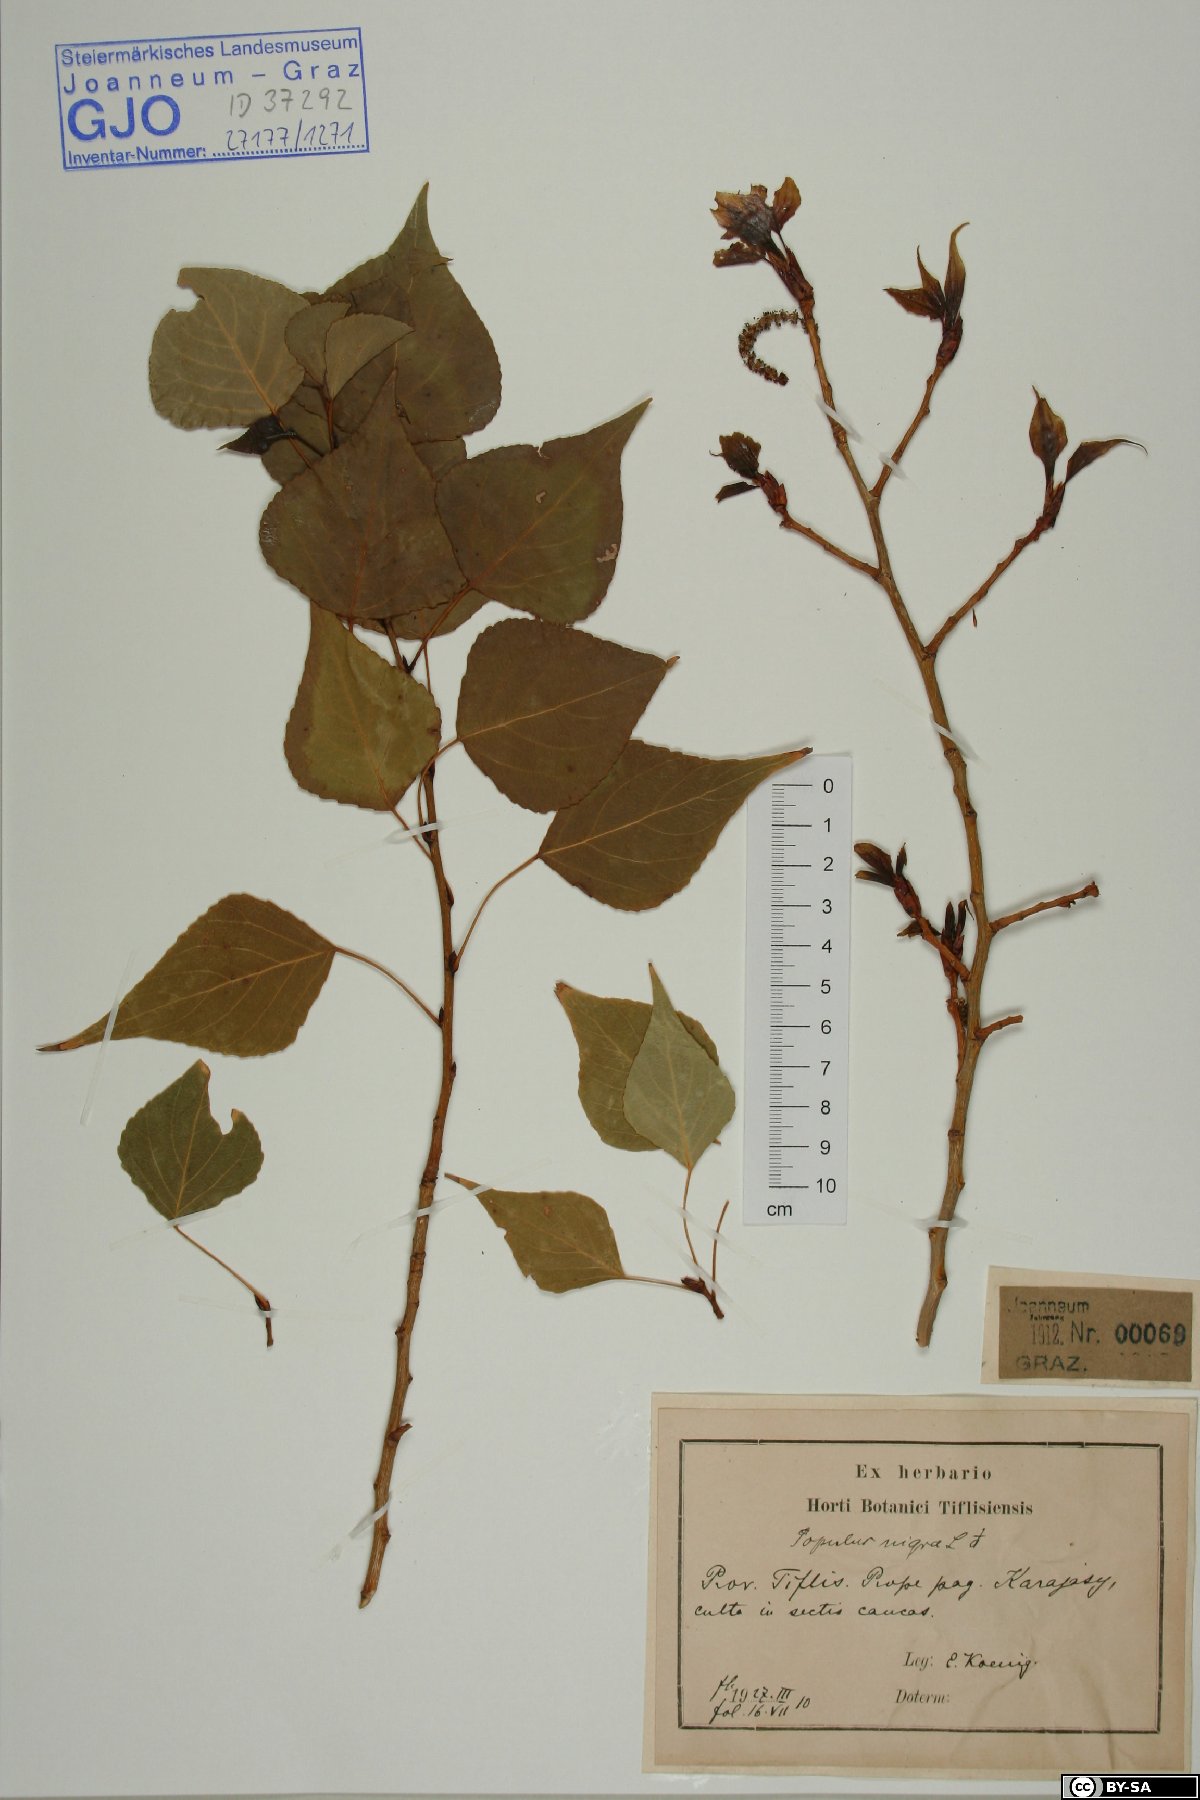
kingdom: Plantae
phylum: Tracheophyta
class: Magnoliopsida
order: Malpighiales
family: Salicaceae
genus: Populus
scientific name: Populus nigra
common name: Black poplar
